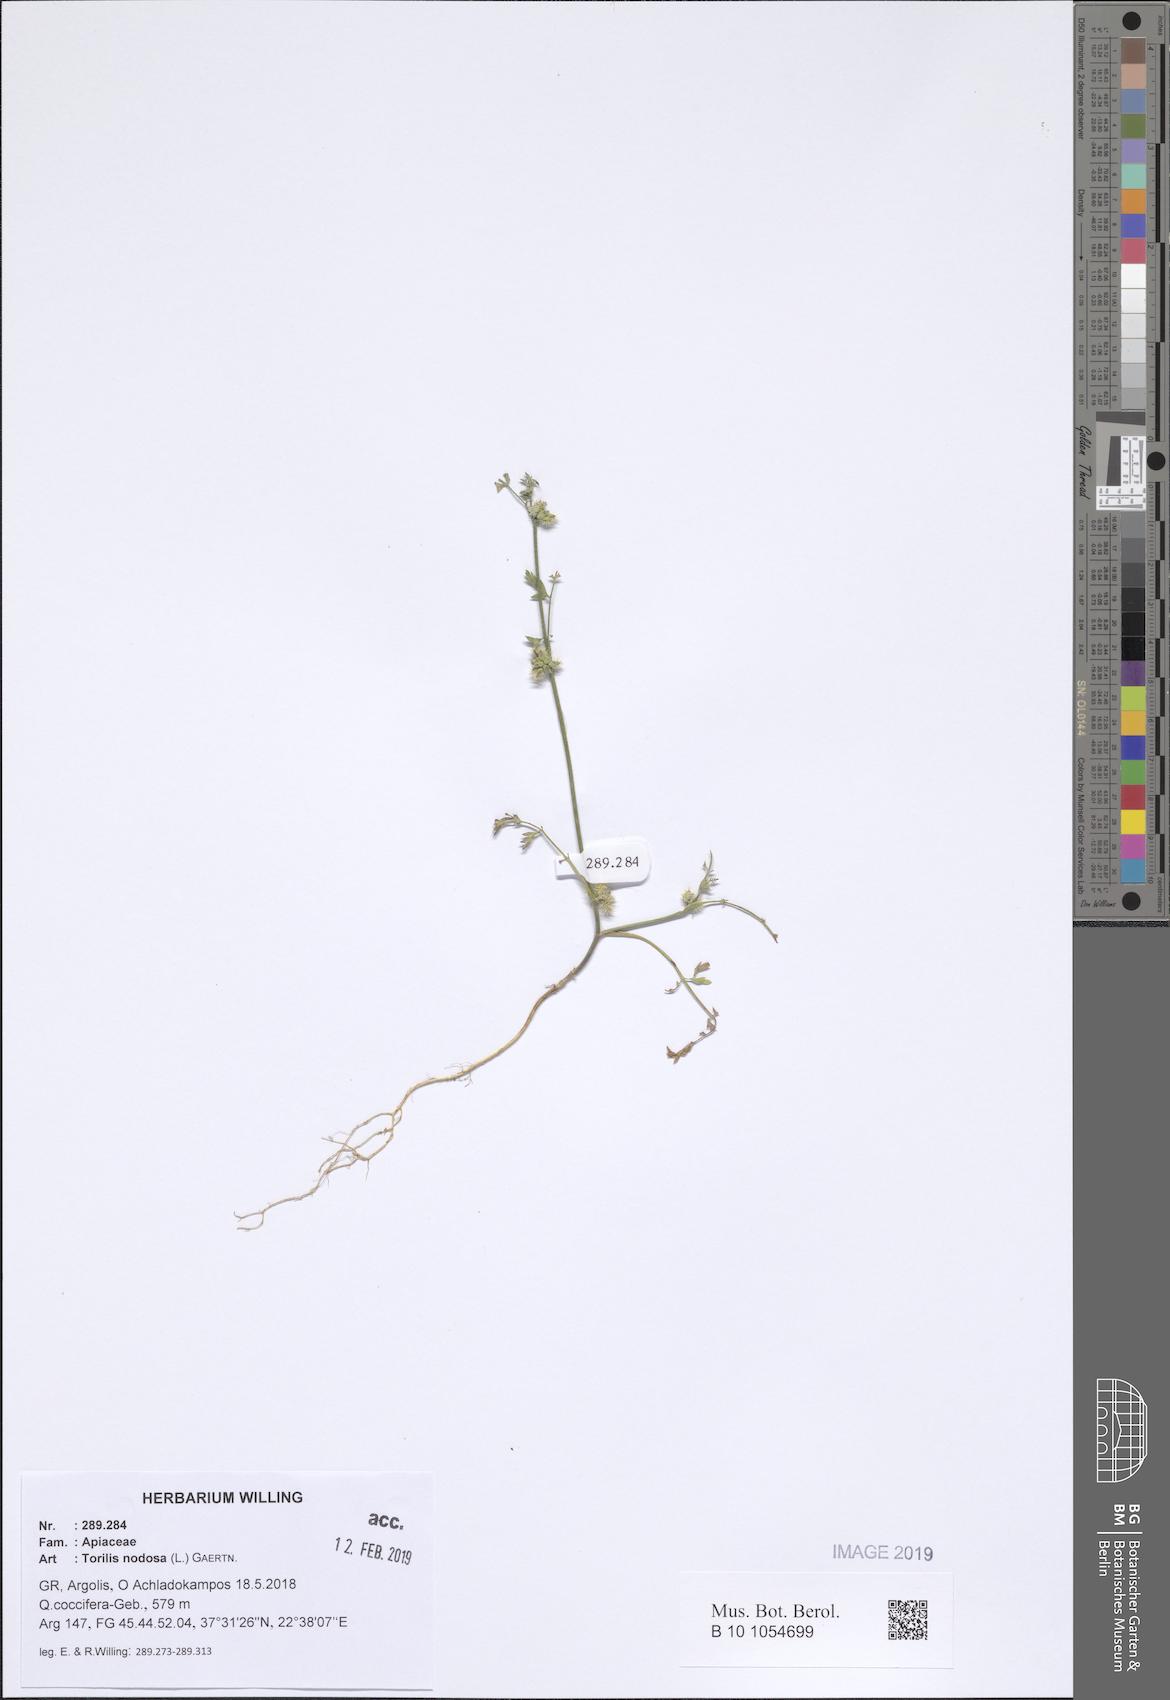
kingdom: Plantae
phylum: Tracheophyta
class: Magnoliopsida
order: Apiales
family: Apiaceae
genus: Torilis
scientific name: Torilis nodosa
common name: Knotted hedge-parsley
